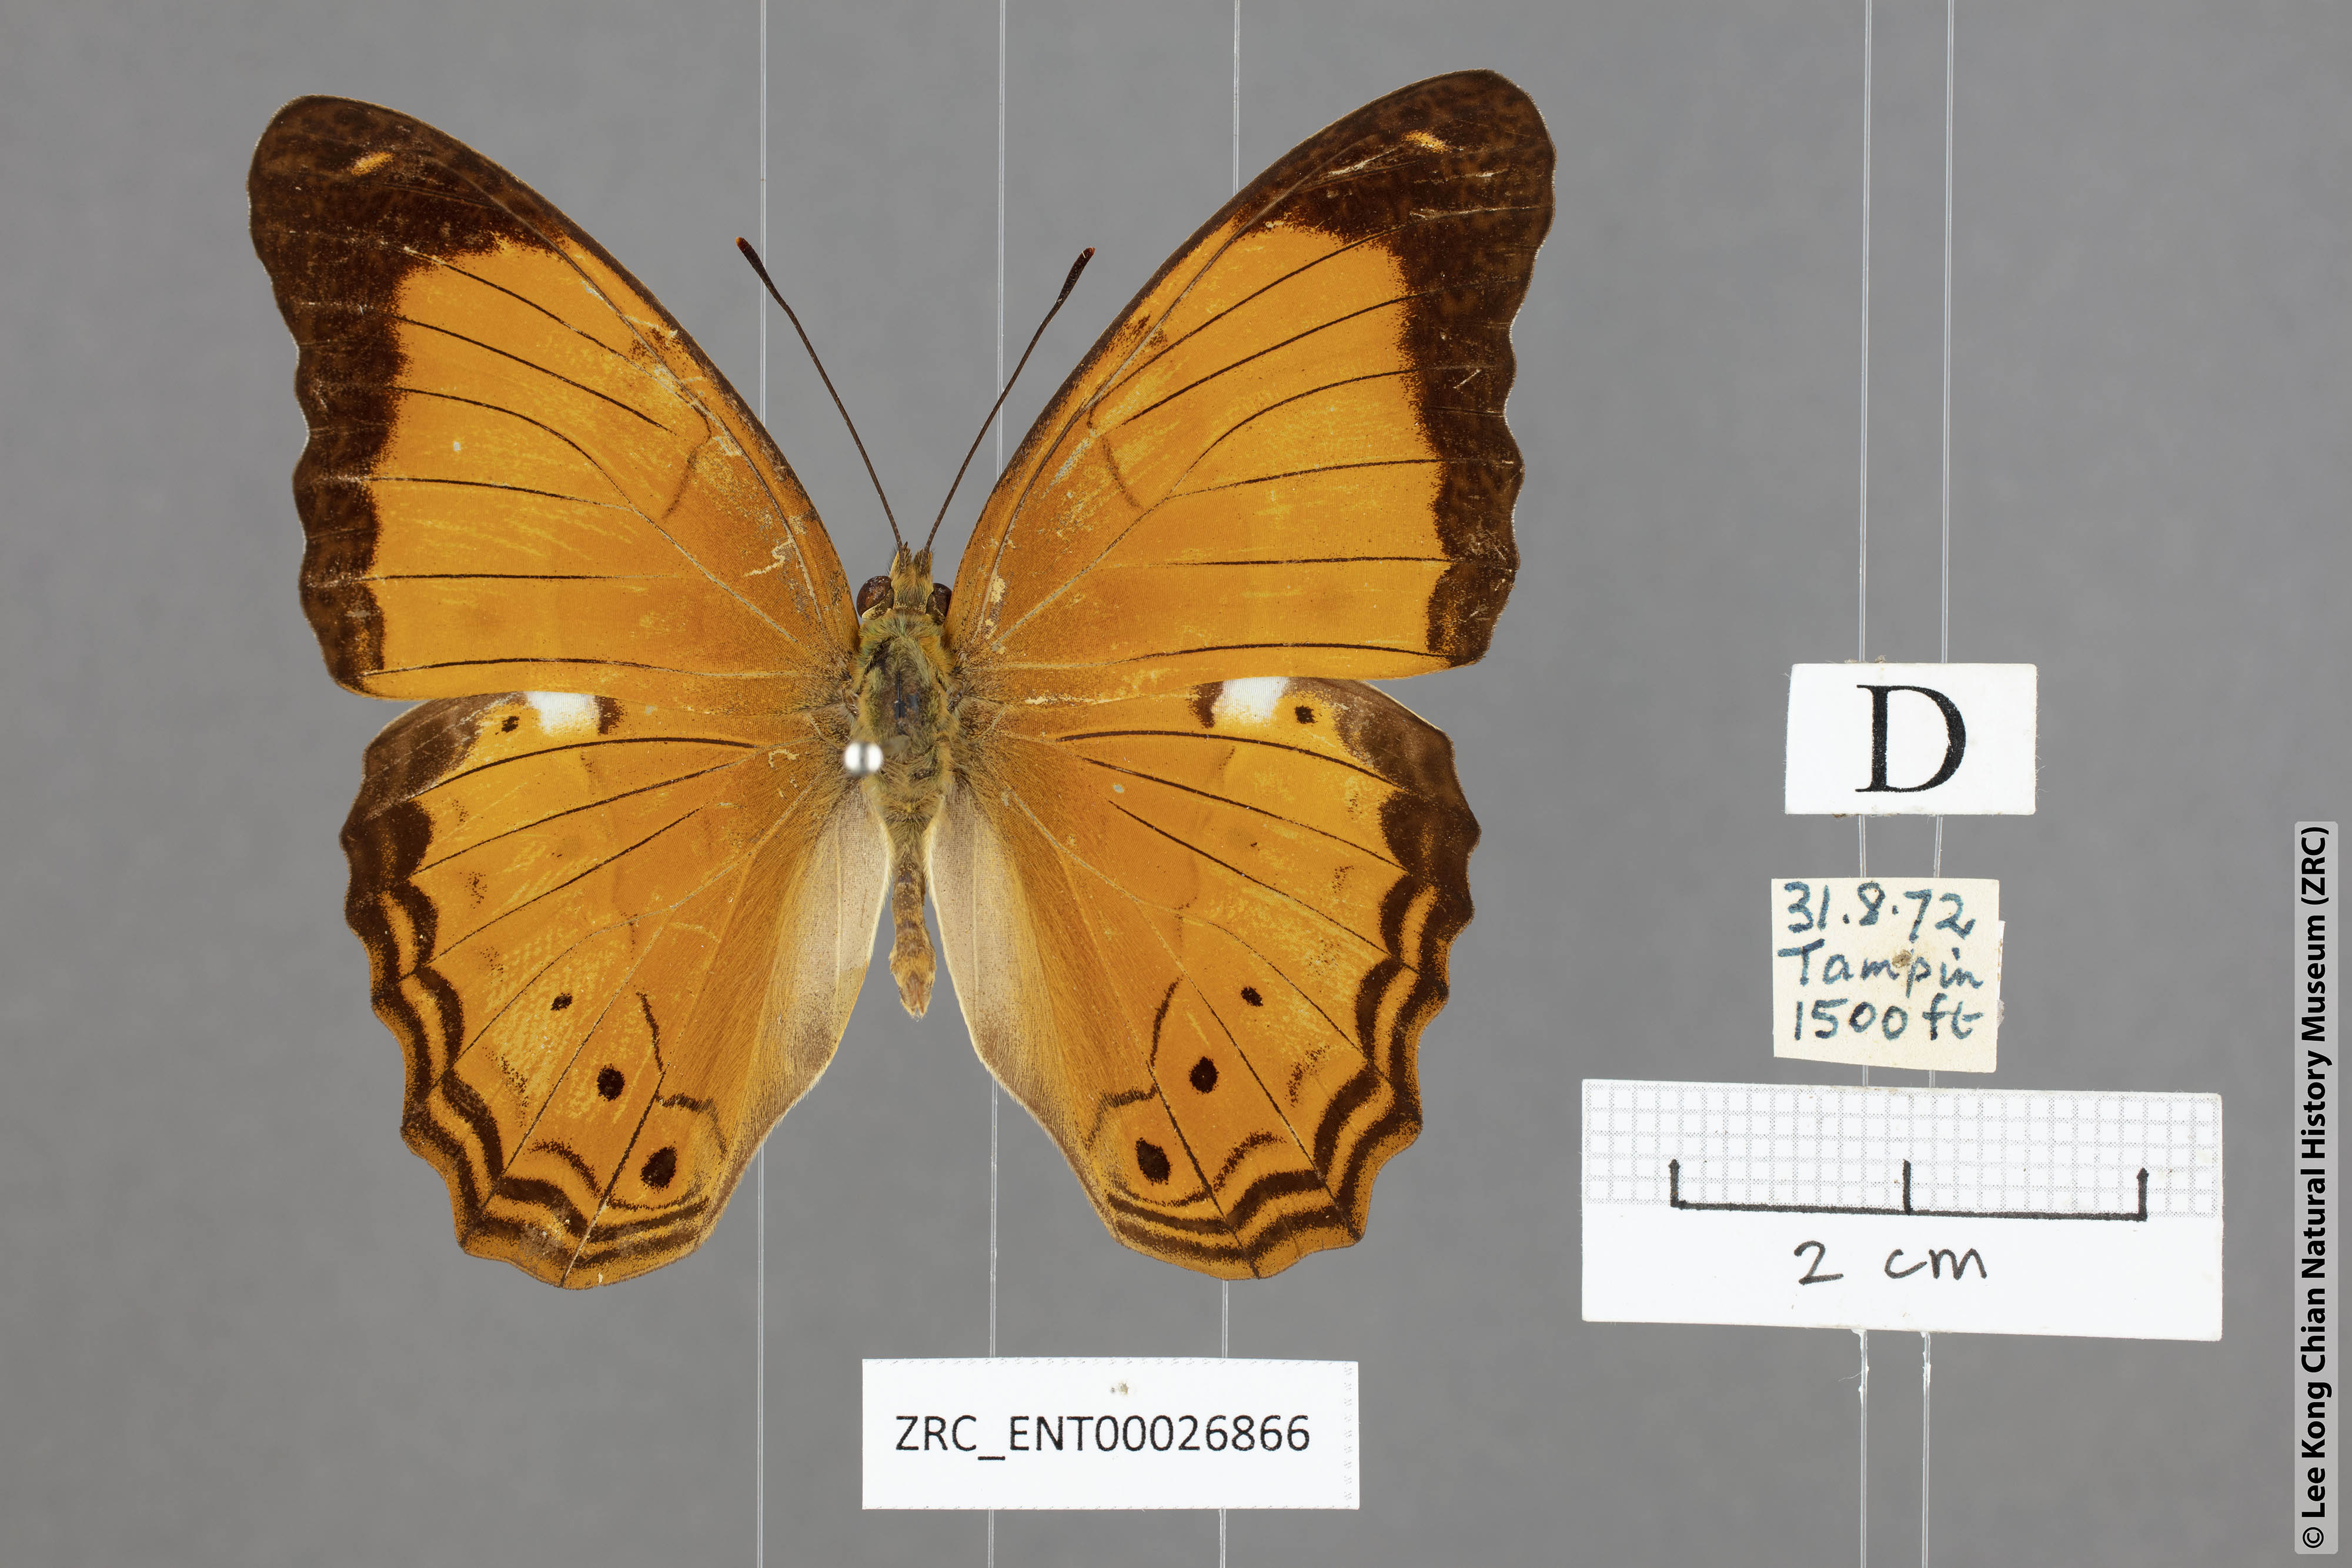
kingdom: Animalia
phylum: Arthropoda
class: Insecta
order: Lepidoptera
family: Nymphalidae
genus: Cirrochroa
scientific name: Cirrochroa emalea
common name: Malay yeoman
